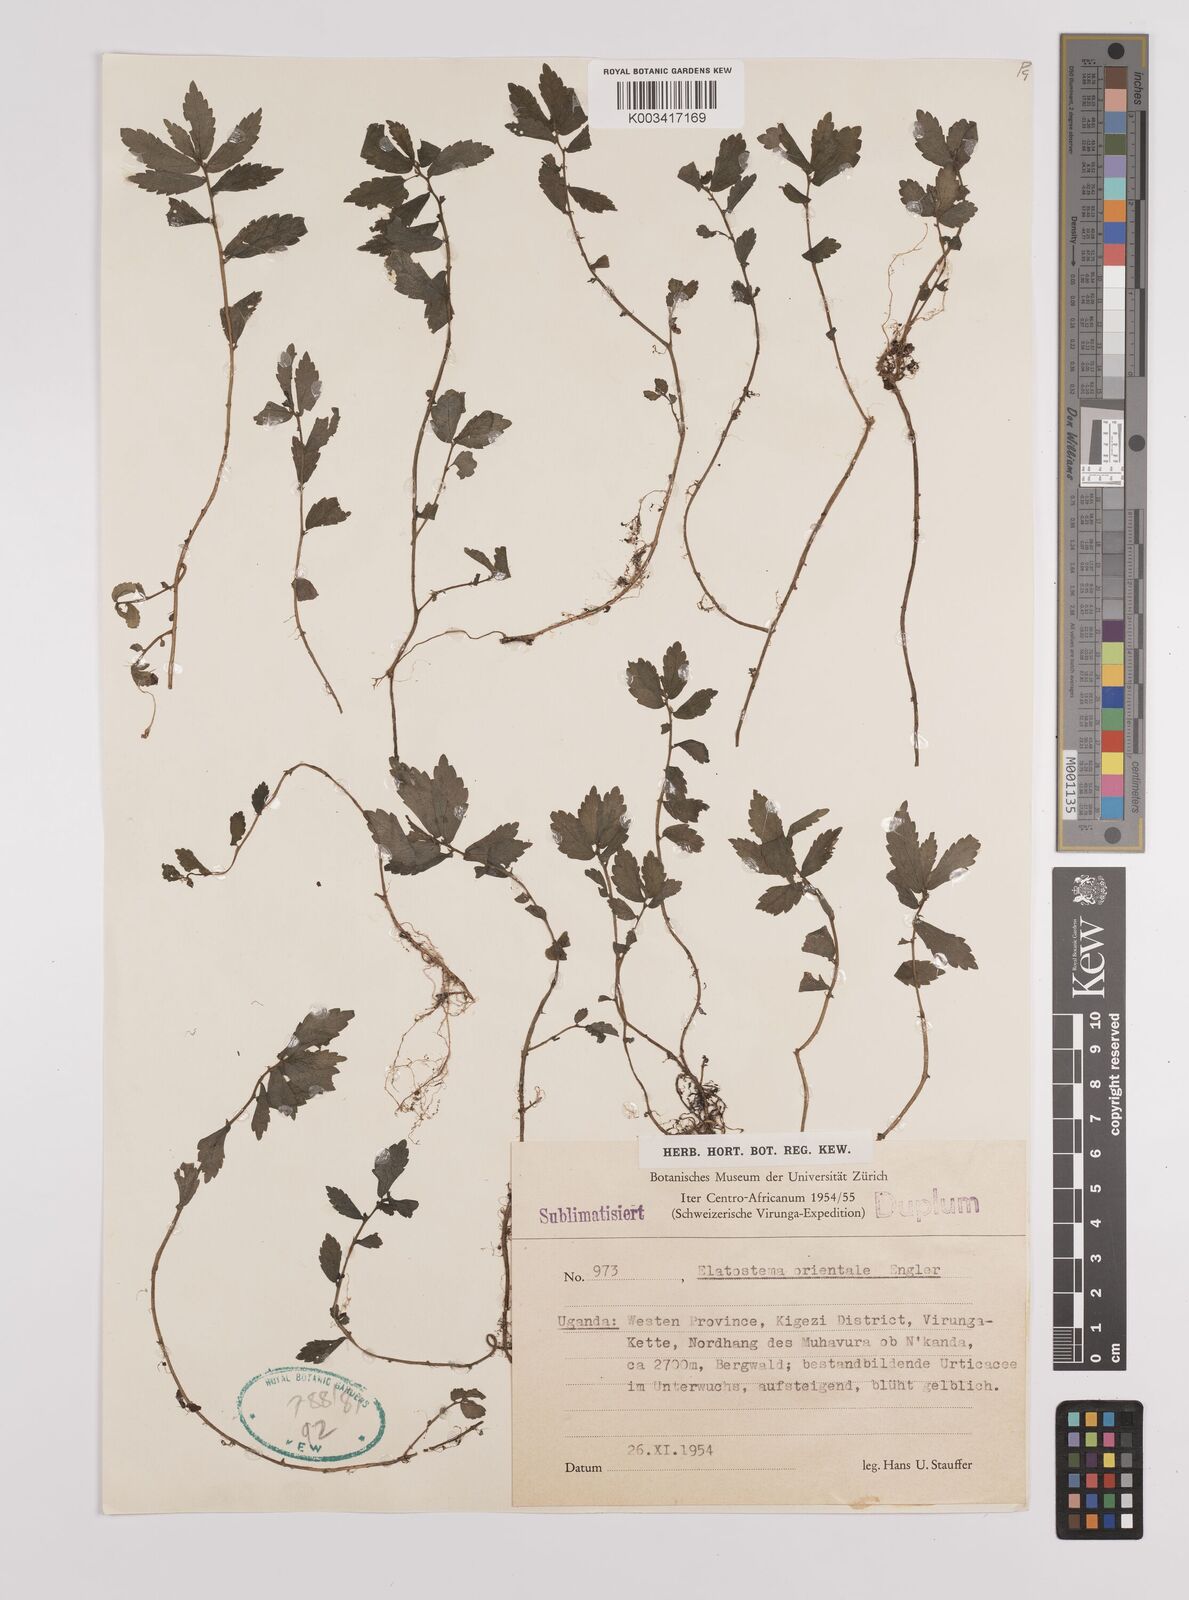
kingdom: Plantae
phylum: Tracheophyta
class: Magnoliopsida
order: Rosales
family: Urticaceae
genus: Elatostema
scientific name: Elatostema monticola
